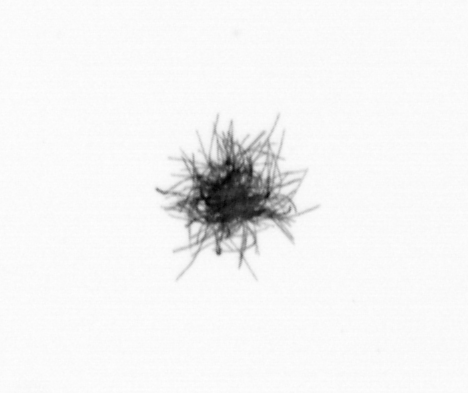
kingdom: Bacteria
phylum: Cyanobacteria
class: Cyanobacteriia
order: Cyanobacteriales
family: Microcoleaceae
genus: Trichodesmium
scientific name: Trichodesmium
